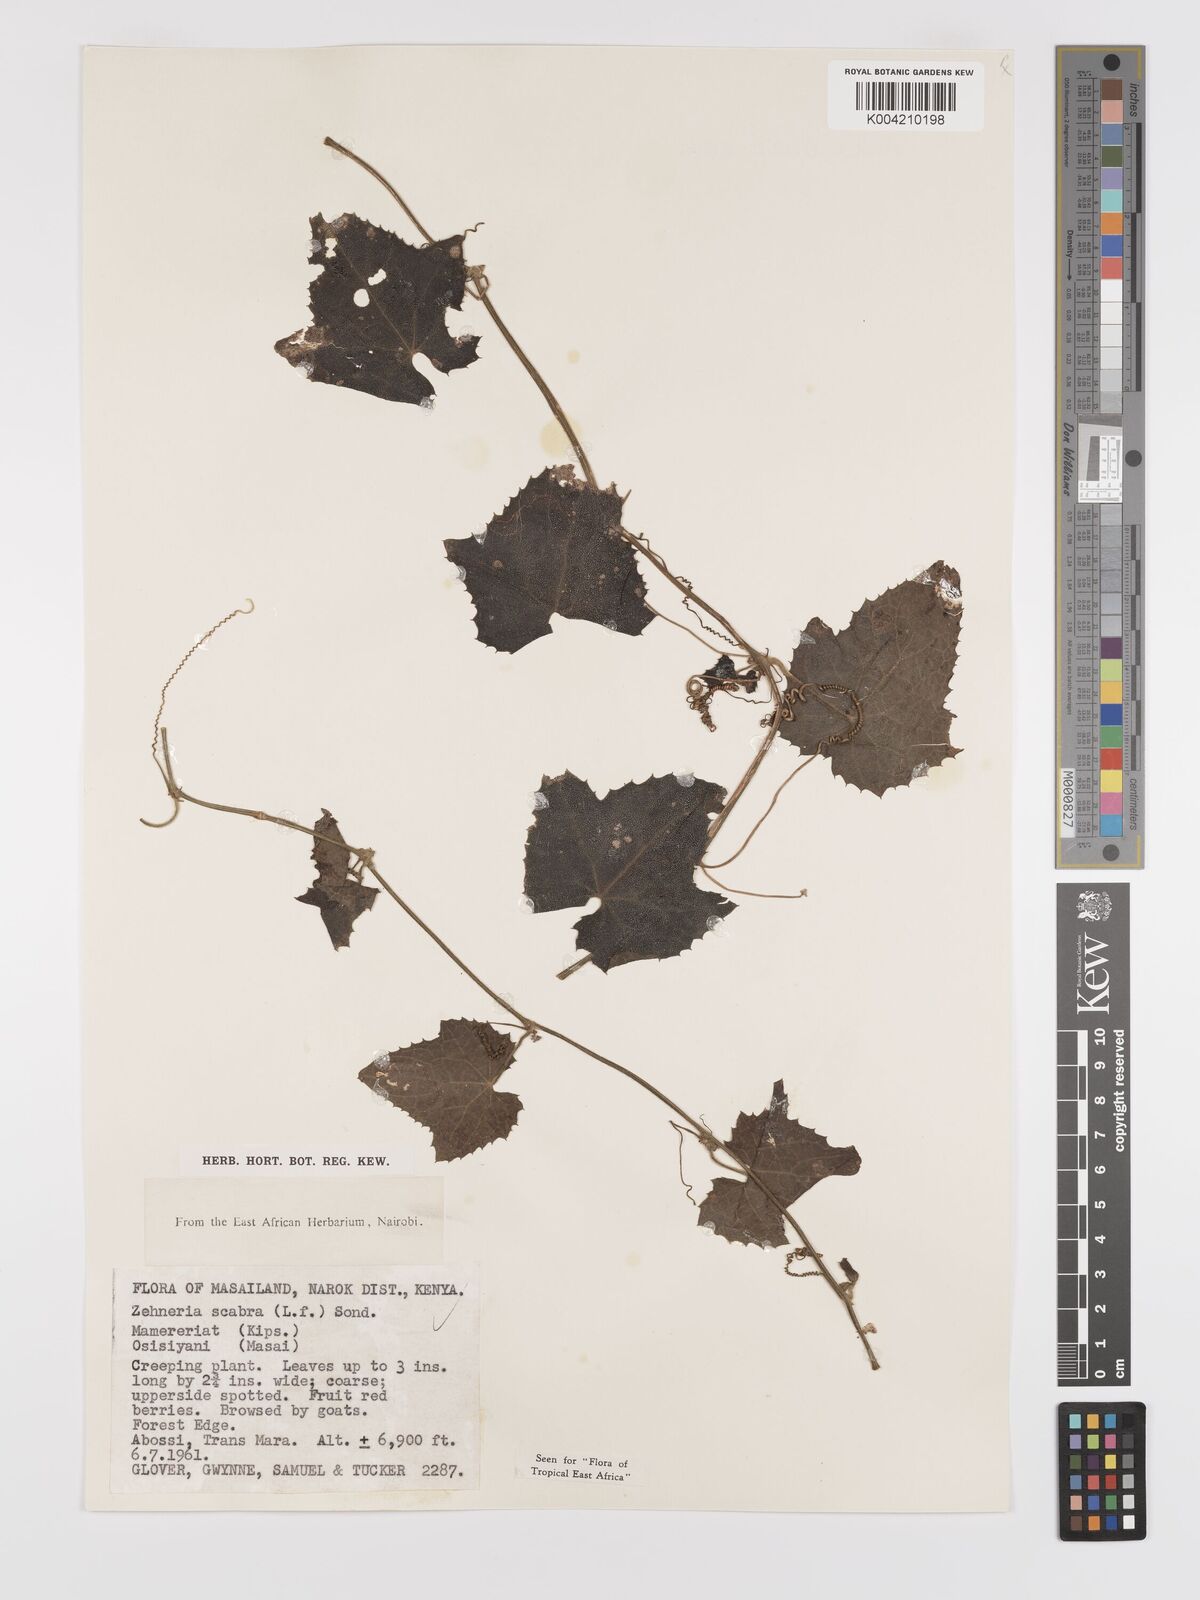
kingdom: Plantae
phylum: Tracheophyta
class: Magnoliopsida
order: Cucurbitales
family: Cucurbitaceae
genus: Zehneria
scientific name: Zehneria scabra
